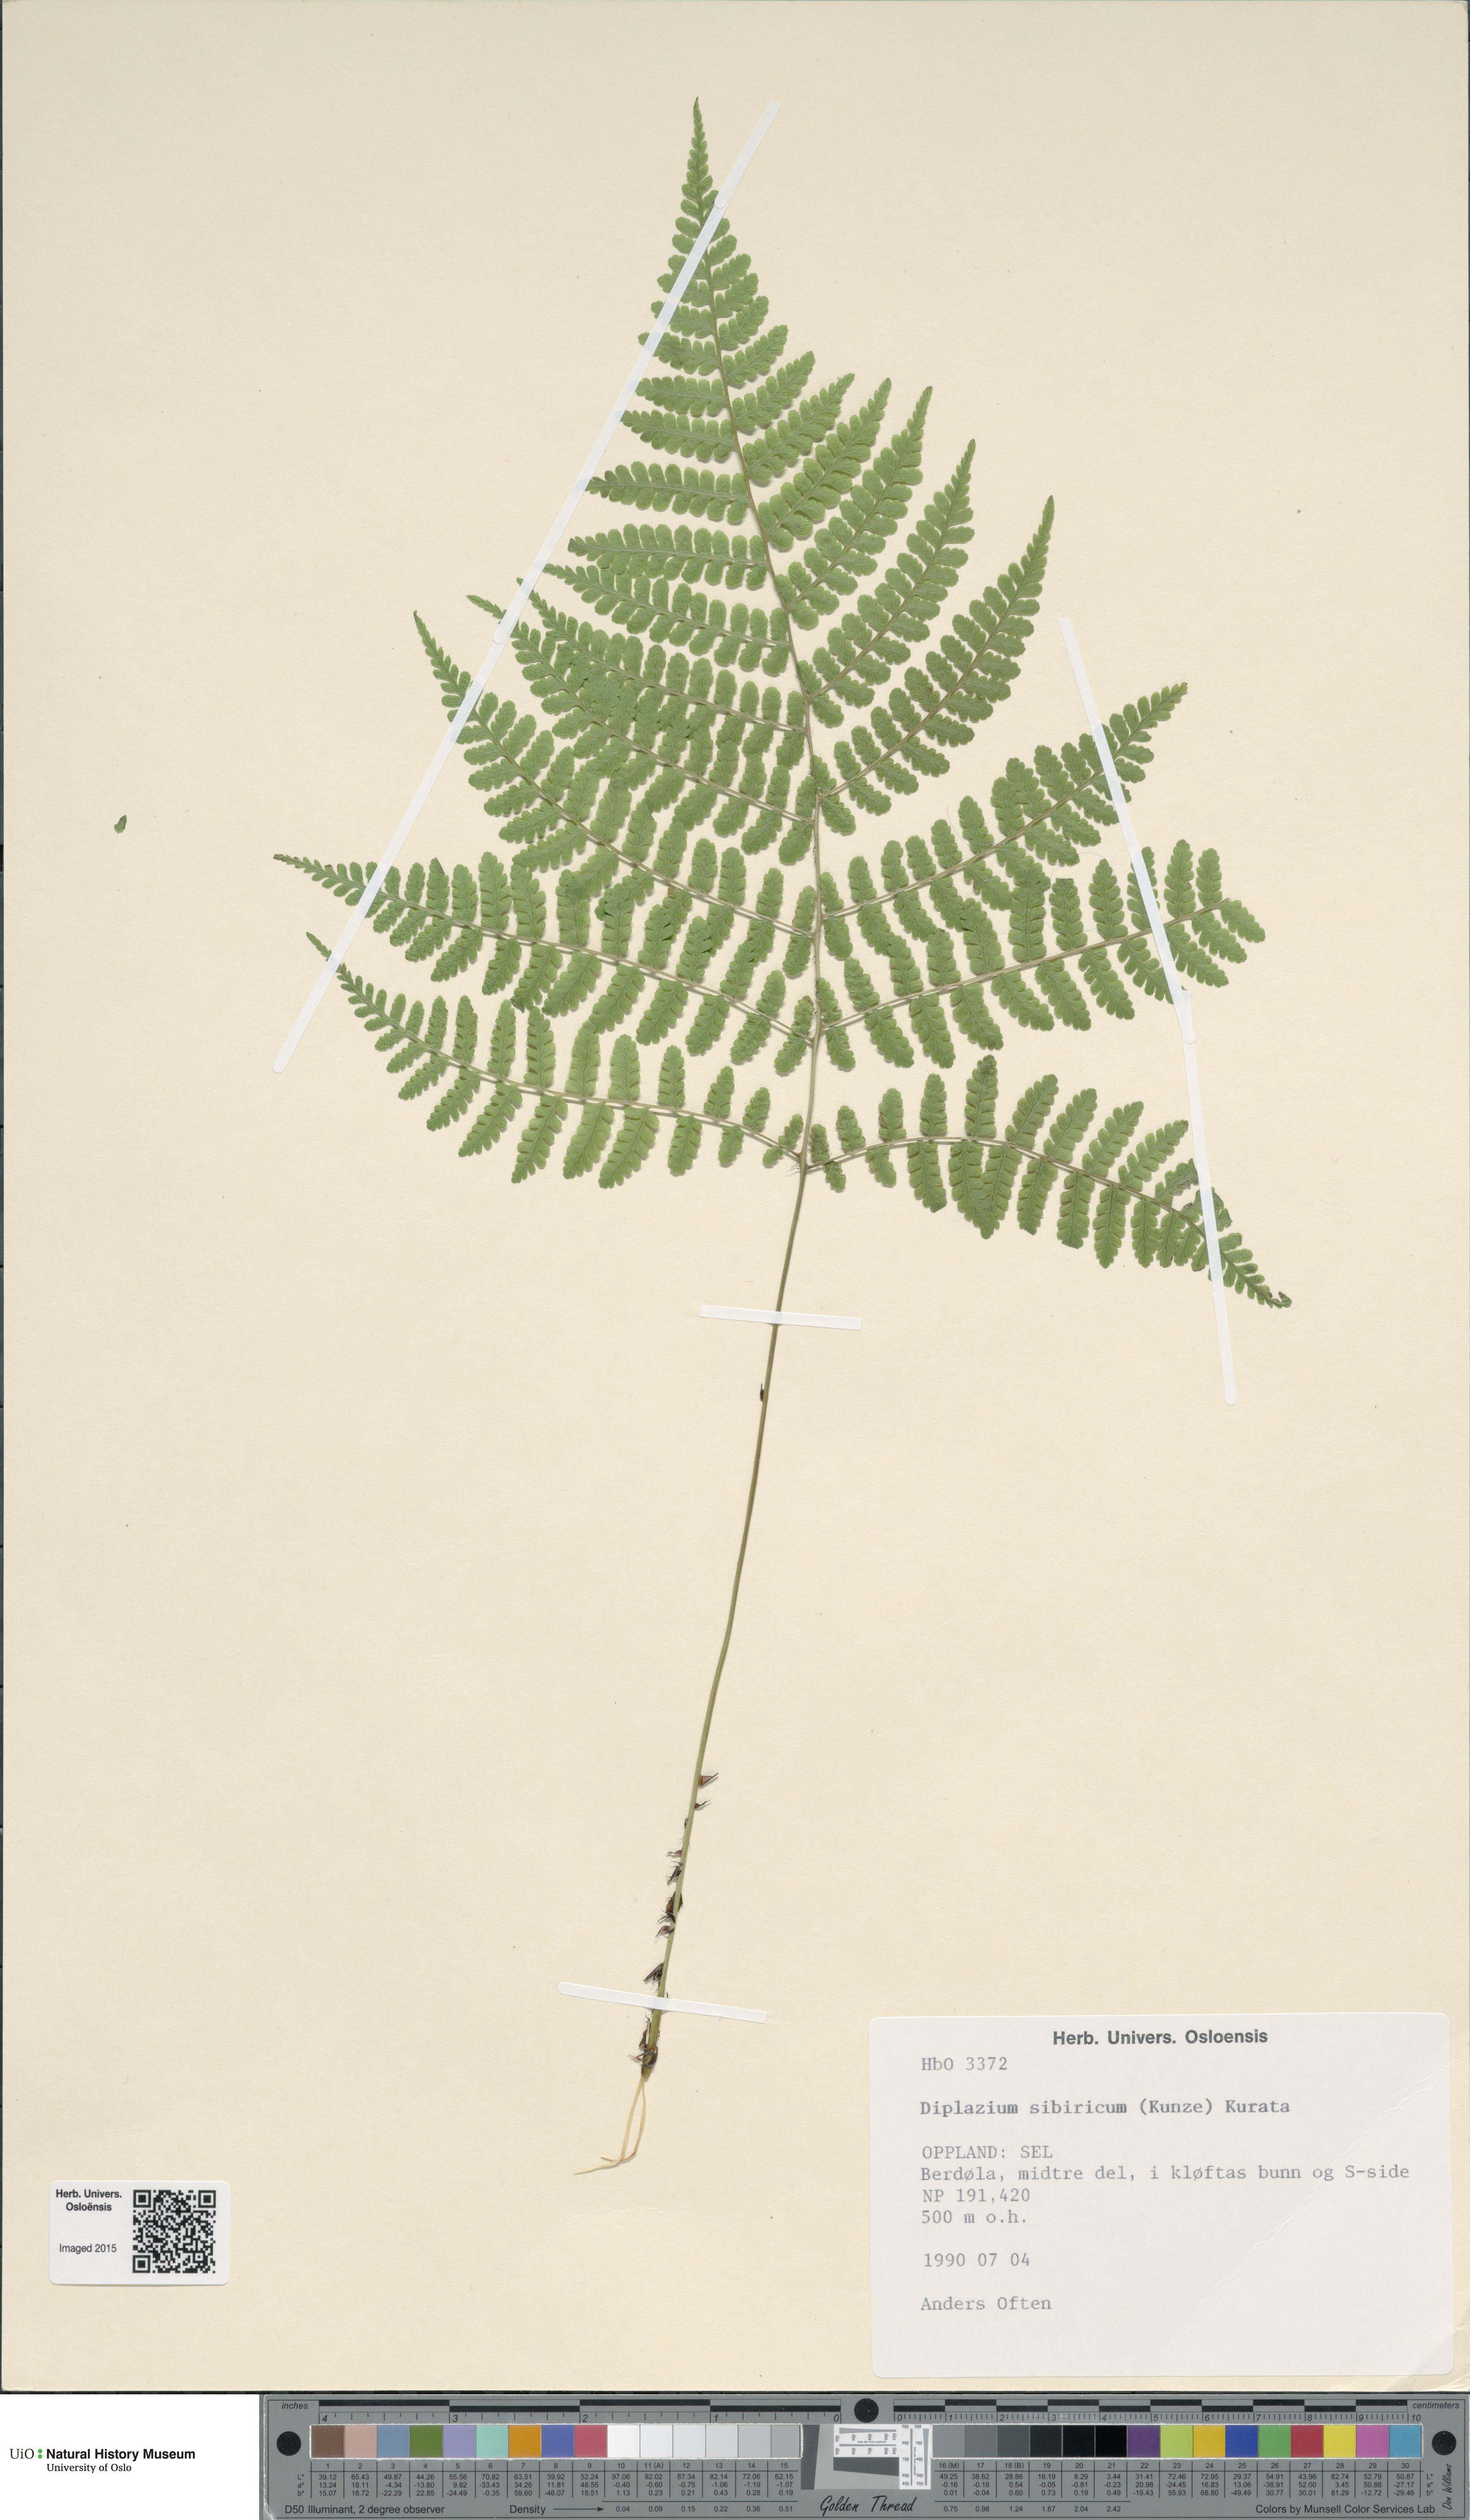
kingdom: Plantae
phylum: Tracheophyta
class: Polypodiopsida
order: Polypodiales
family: Athyriaceae
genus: Diplazium
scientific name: Diplazium sibiricum
